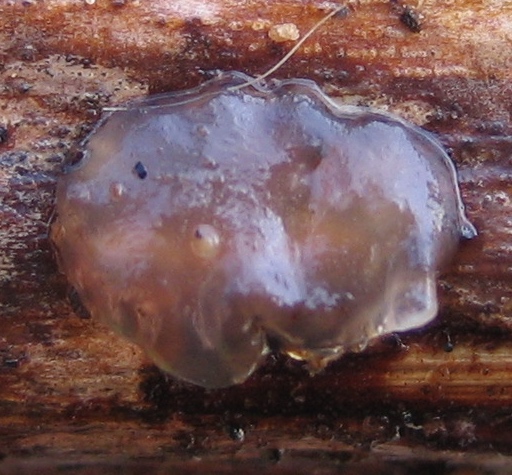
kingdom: Fungi
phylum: Basidiomycota
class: Tremellomycetes
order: Tremellales
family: Exidiaceae
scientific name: Exidiaceae
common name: bævretopfamilien
